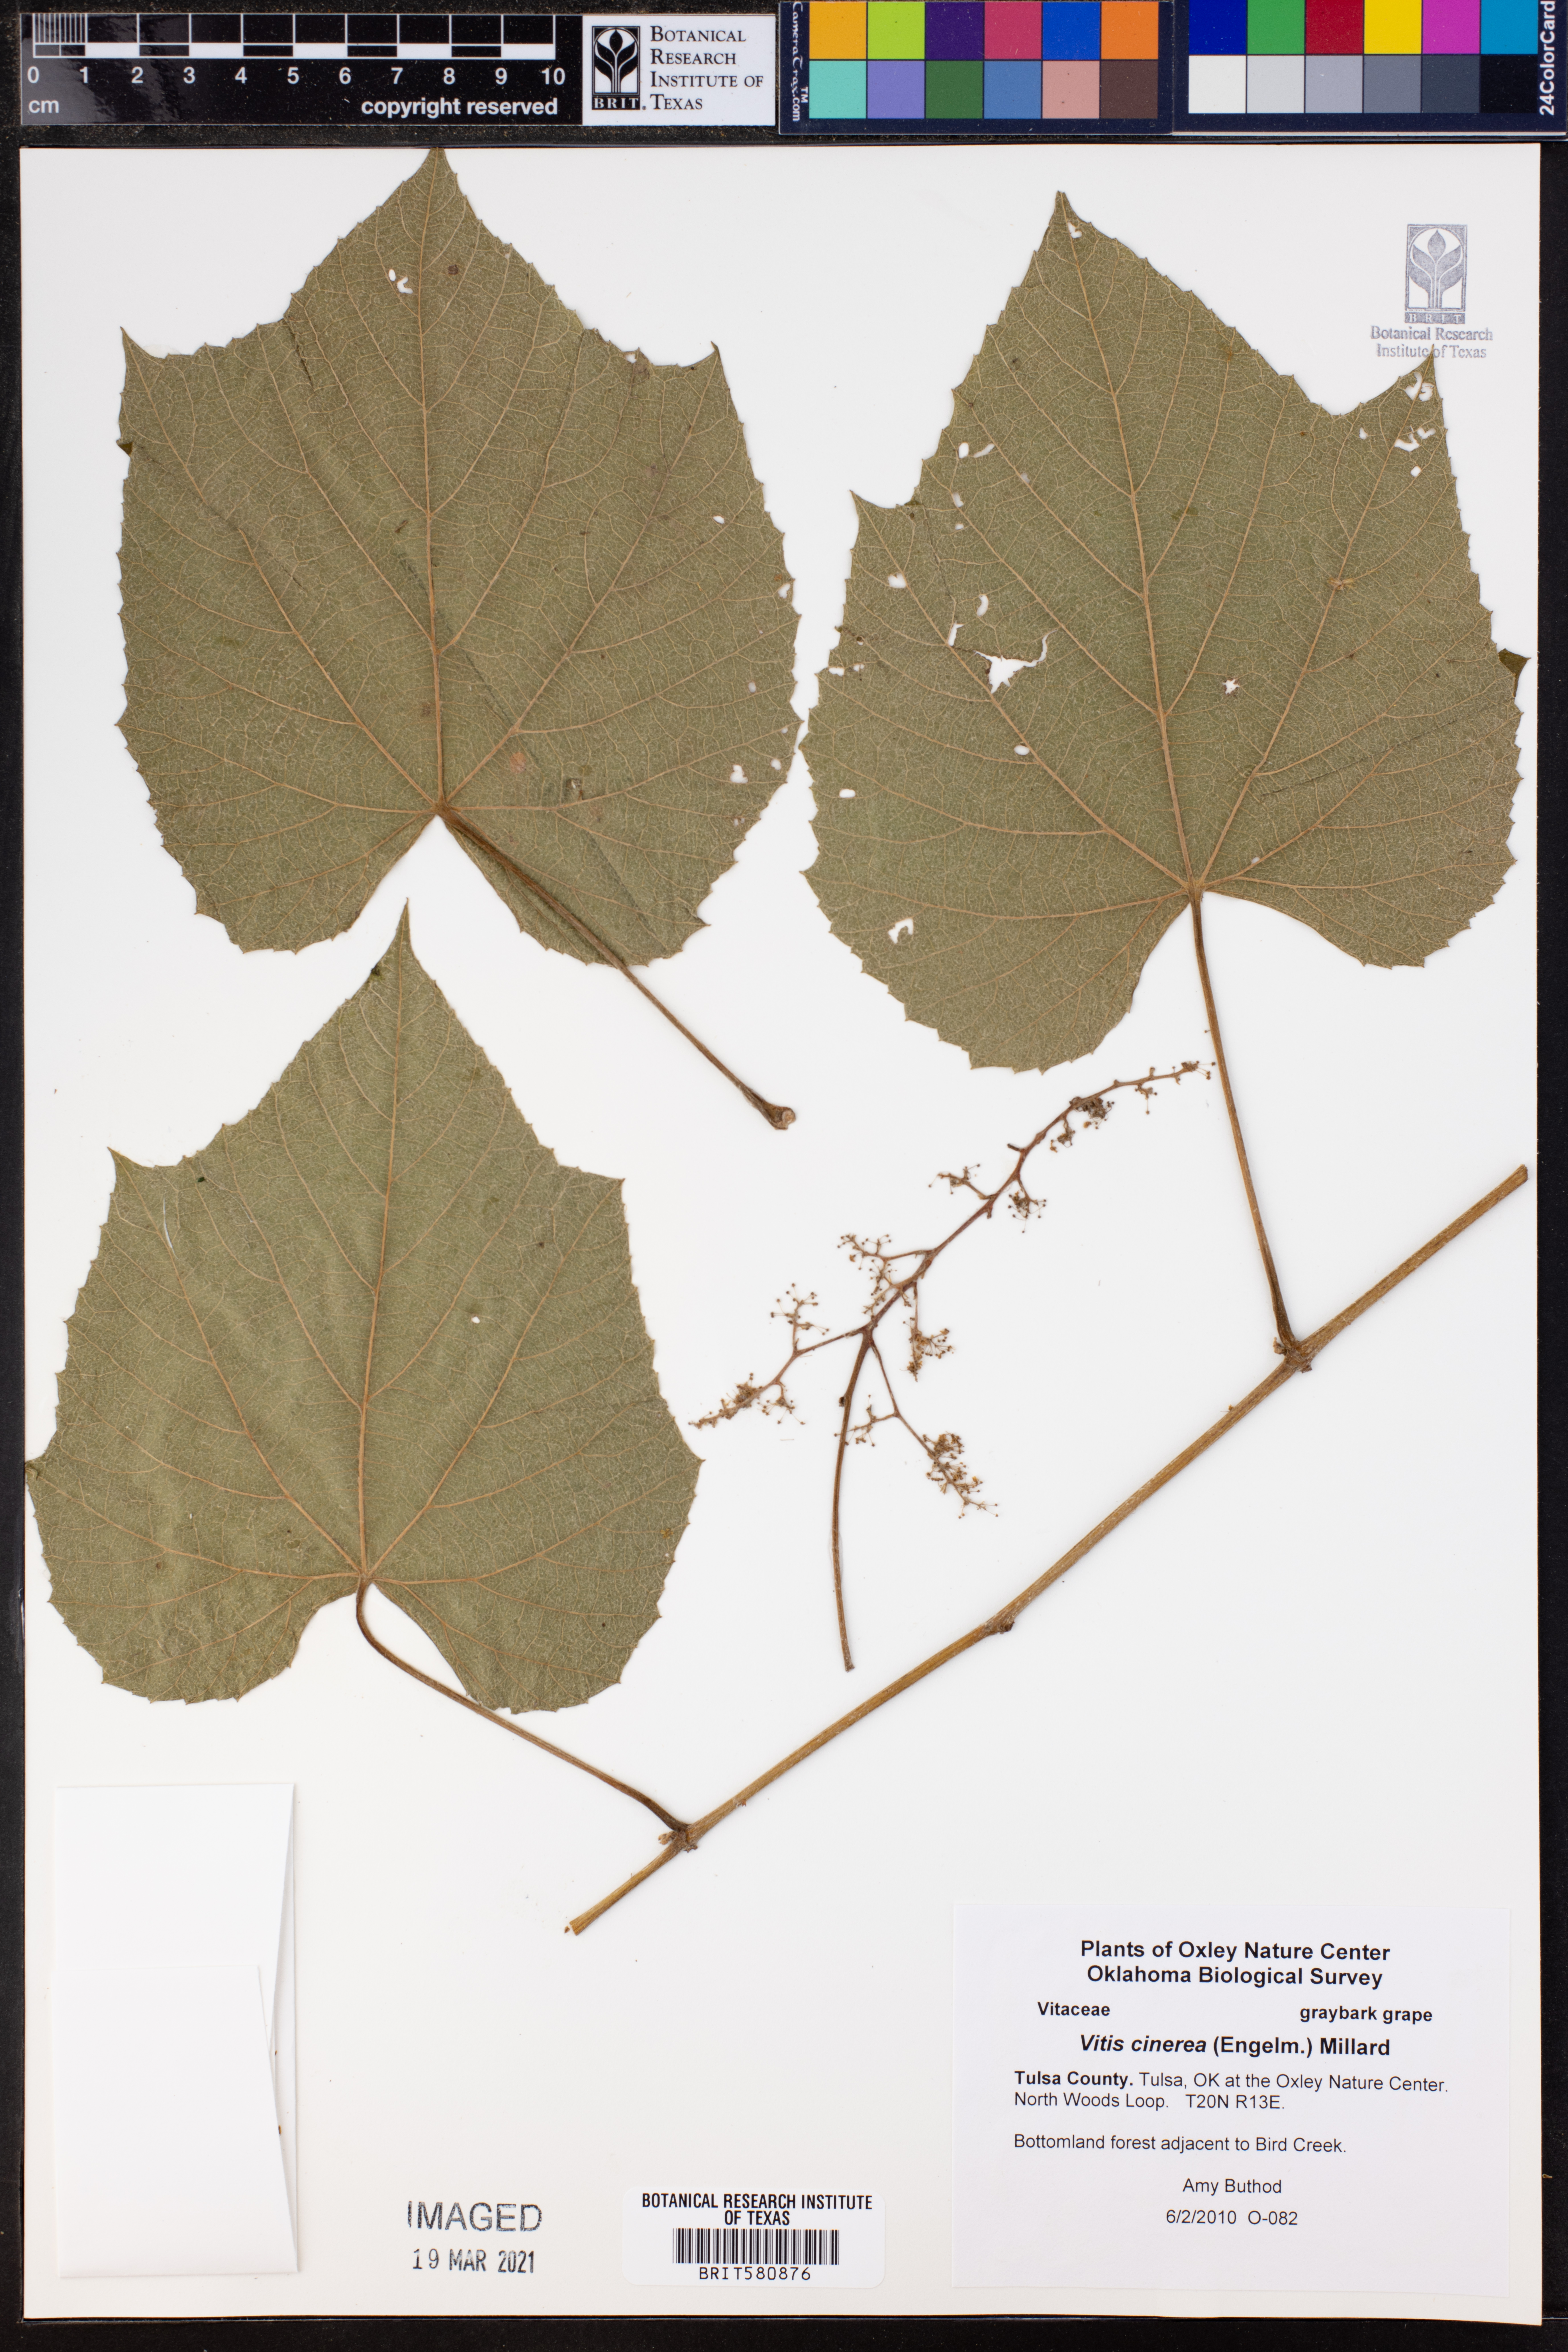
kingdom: Plantae
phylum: Tracheophyta
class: Magnoliopsida
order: Vitales
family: Vitaceae
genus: Vitis
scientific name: Vitis cinerea
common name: Ashy grape
